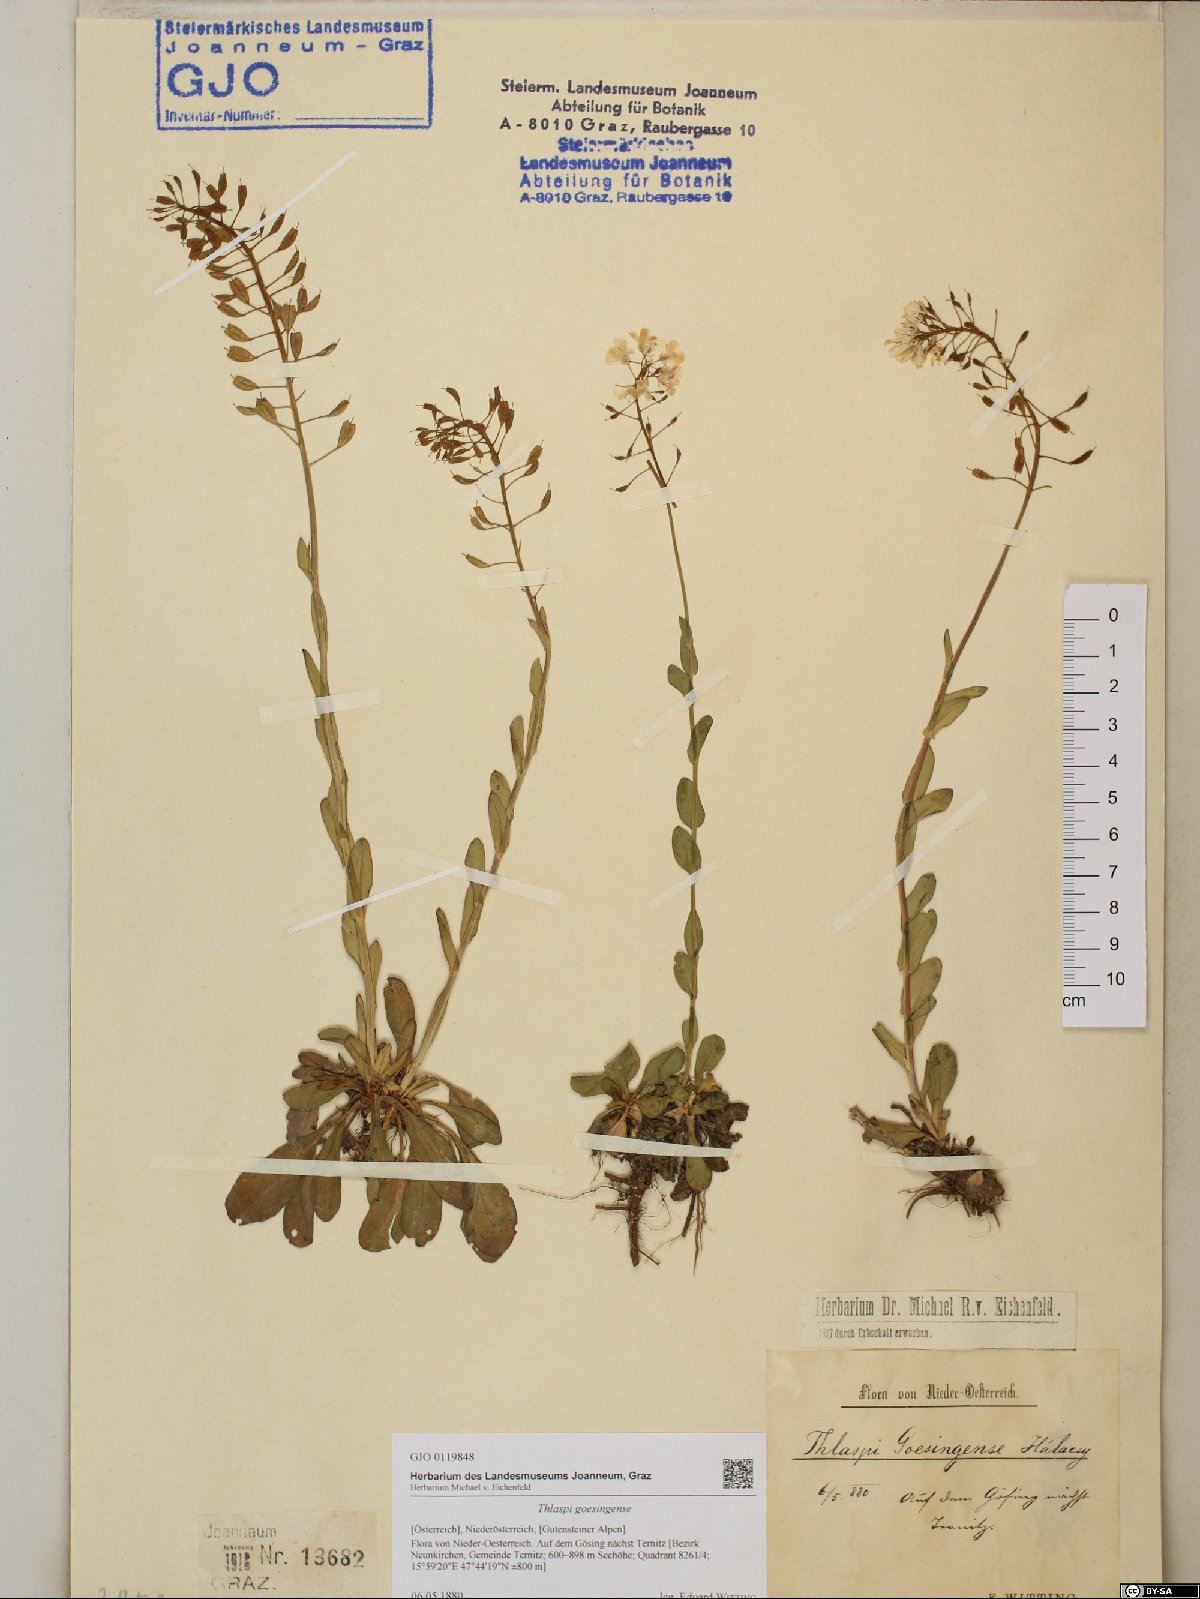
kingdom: Plantae
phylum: Tracheophyta
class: Magnoliopsida
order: Brassicales
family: Brassicaceae
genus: Noccaea
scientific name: Noccaea goesingensis
